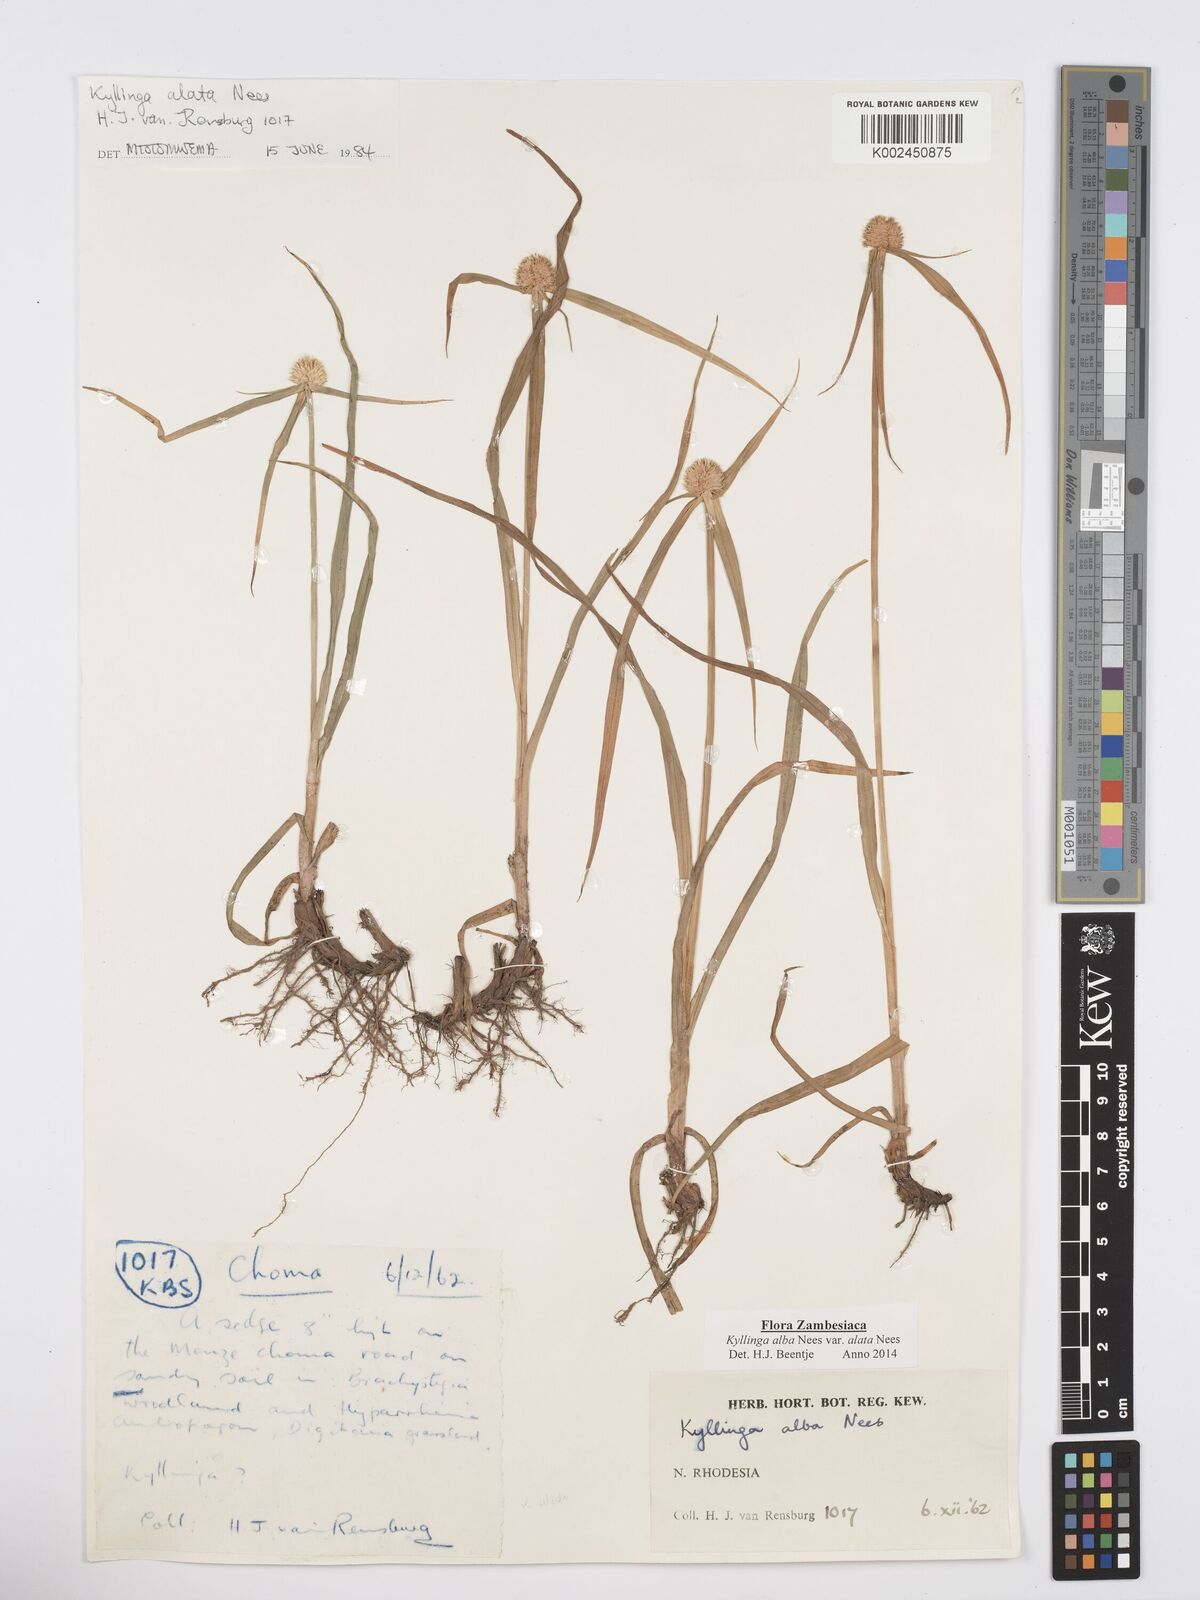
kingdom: Plantae
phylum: Tracheophyta
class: Liliopsida
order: Poales
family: Cyperaceae
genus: Cyperus
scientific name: Cyperus
